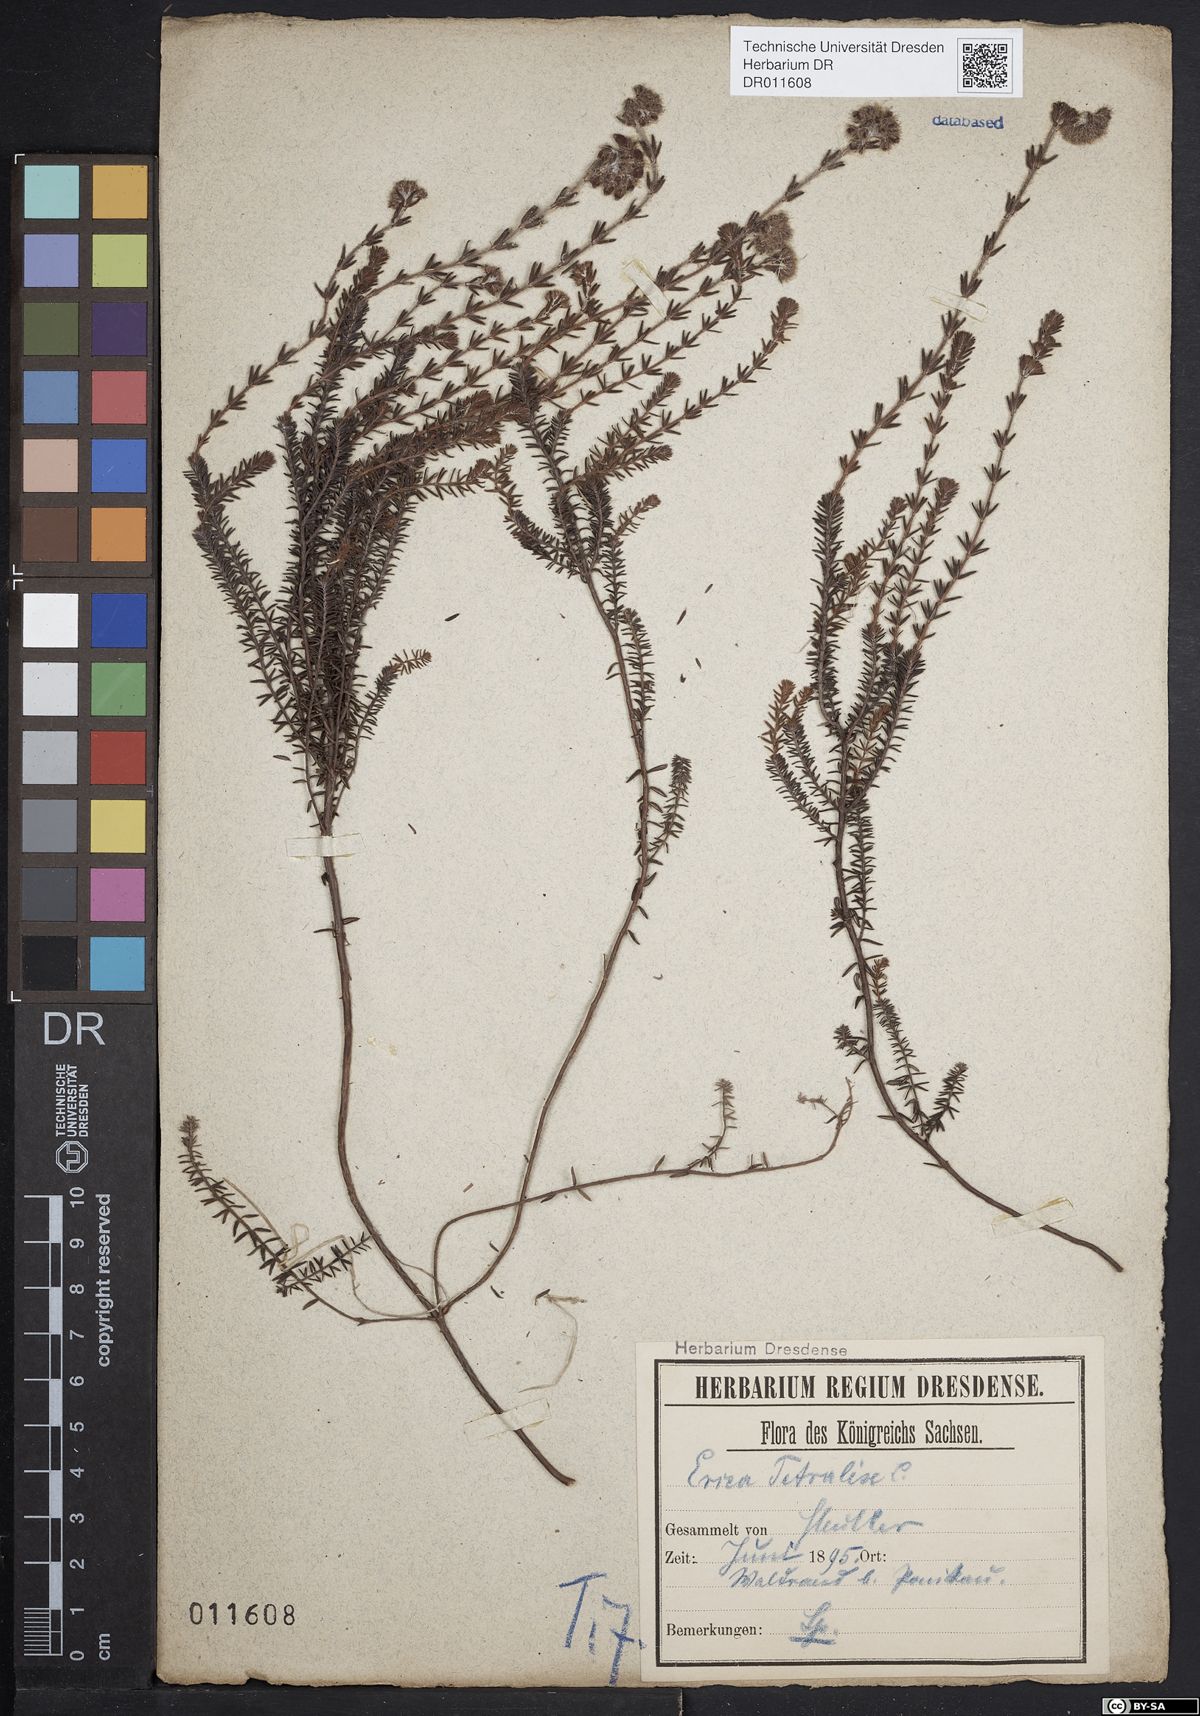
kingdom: Plantae
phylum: Tracheophyta
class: Magnoliopsida
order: Ericales
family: Ericaceae
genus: Erica
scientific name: Erica tetralix
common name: Cross-leaved heath
